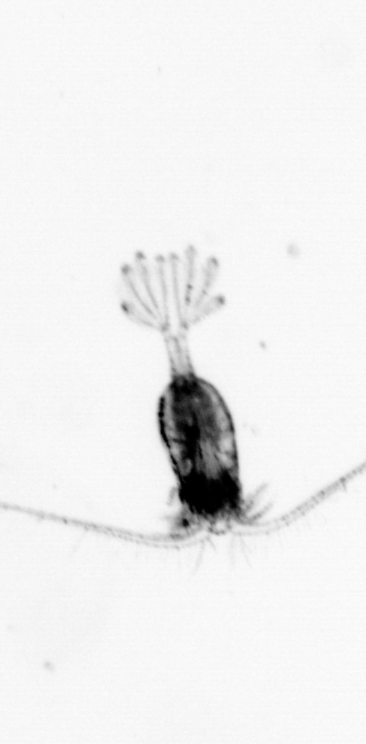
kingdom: Animalia
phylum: Arthropoda
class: Copepoda
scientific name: Copepoda
